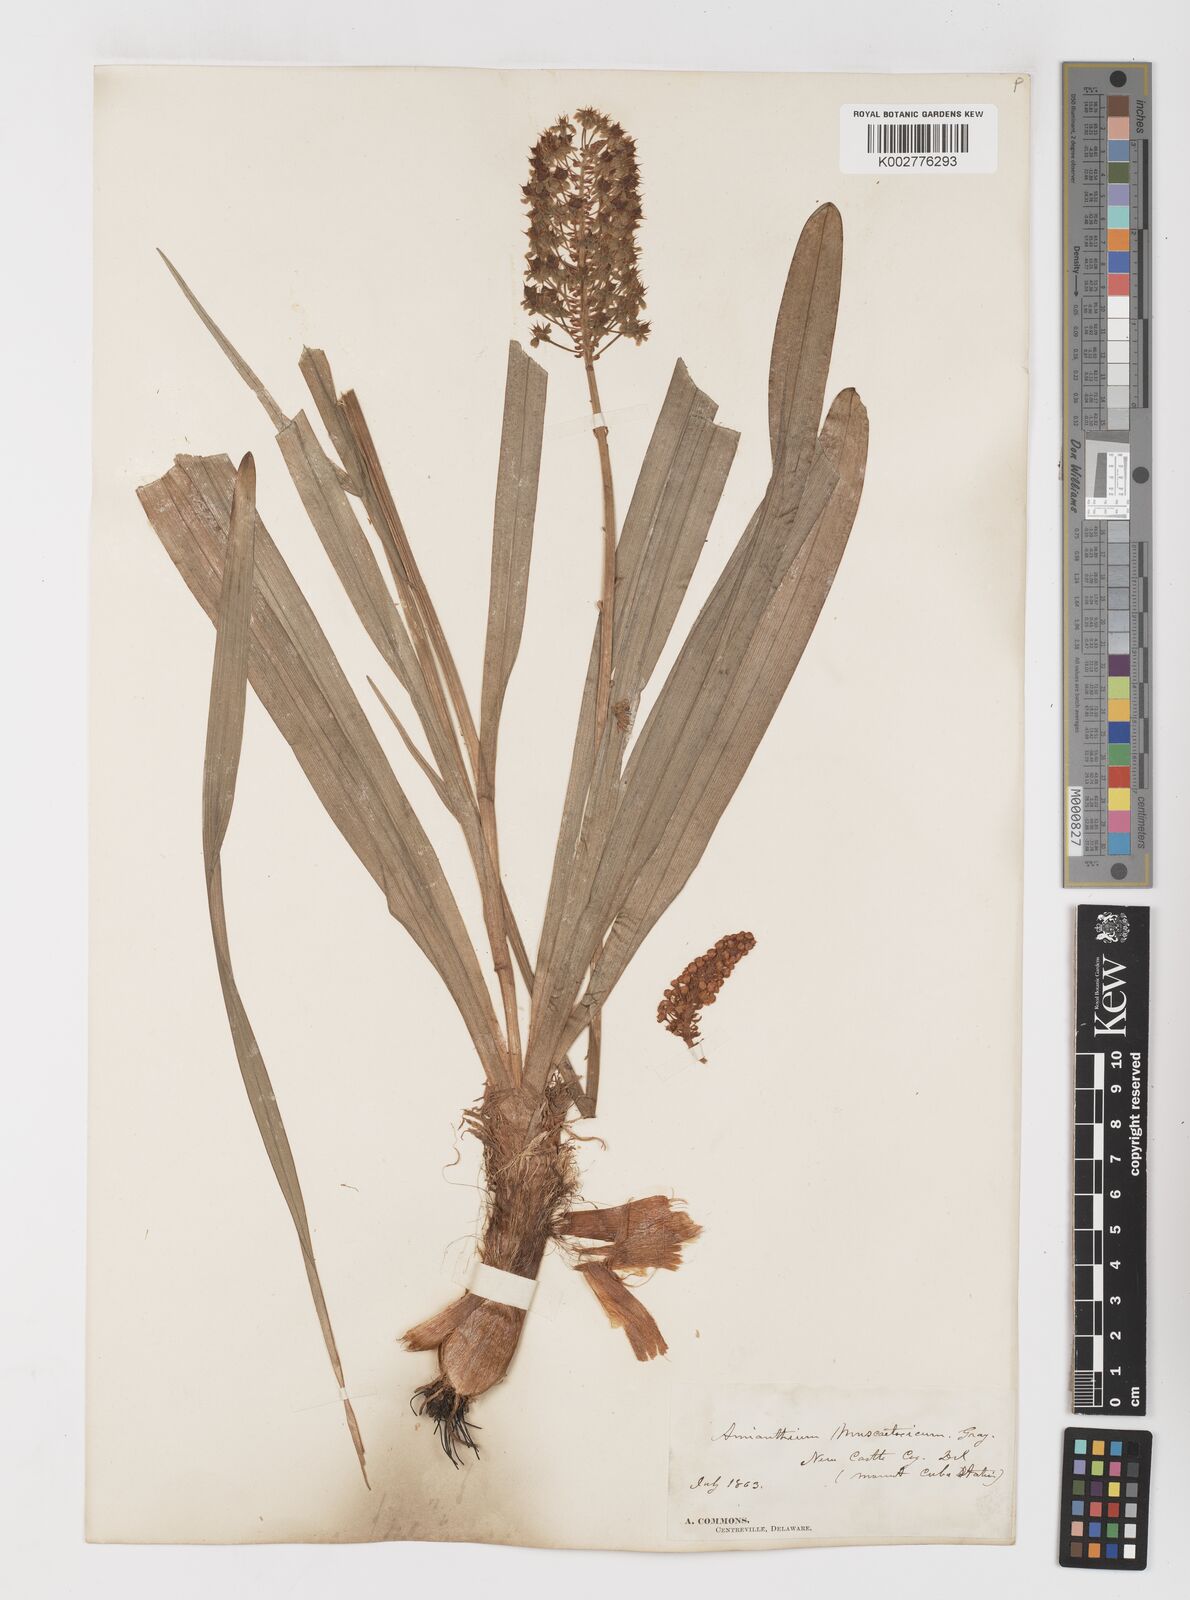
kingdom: Plantae
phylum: Tracheophyta
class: Liliopsida
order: Liliales
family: Melanthiaceae
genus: Amianthium
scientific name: Amianthium muscitoxicum
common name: Fly-poison
